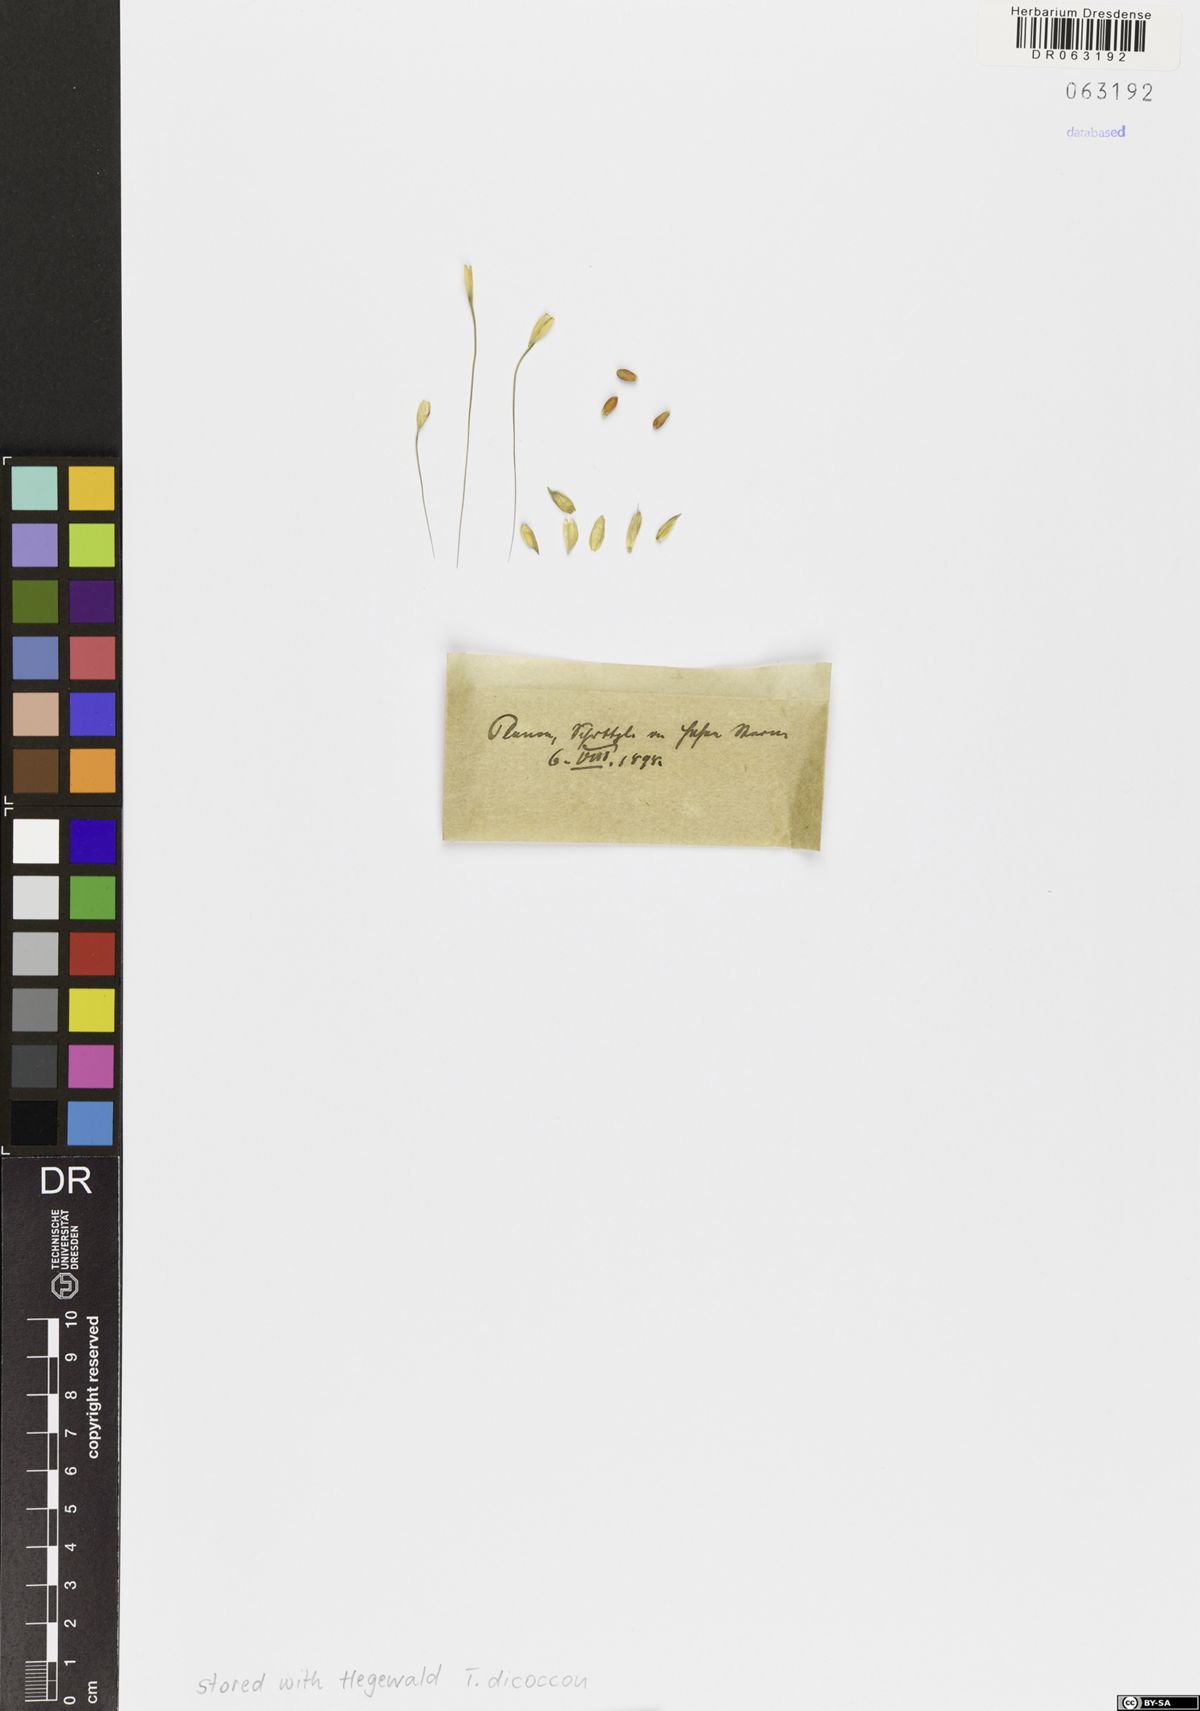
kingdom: Plantae
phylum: Tracheophyta
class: Liliopsida
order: Poales
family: Poaceae
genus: Triticum
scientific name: Triticum turgidum
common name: Rivet wheat
